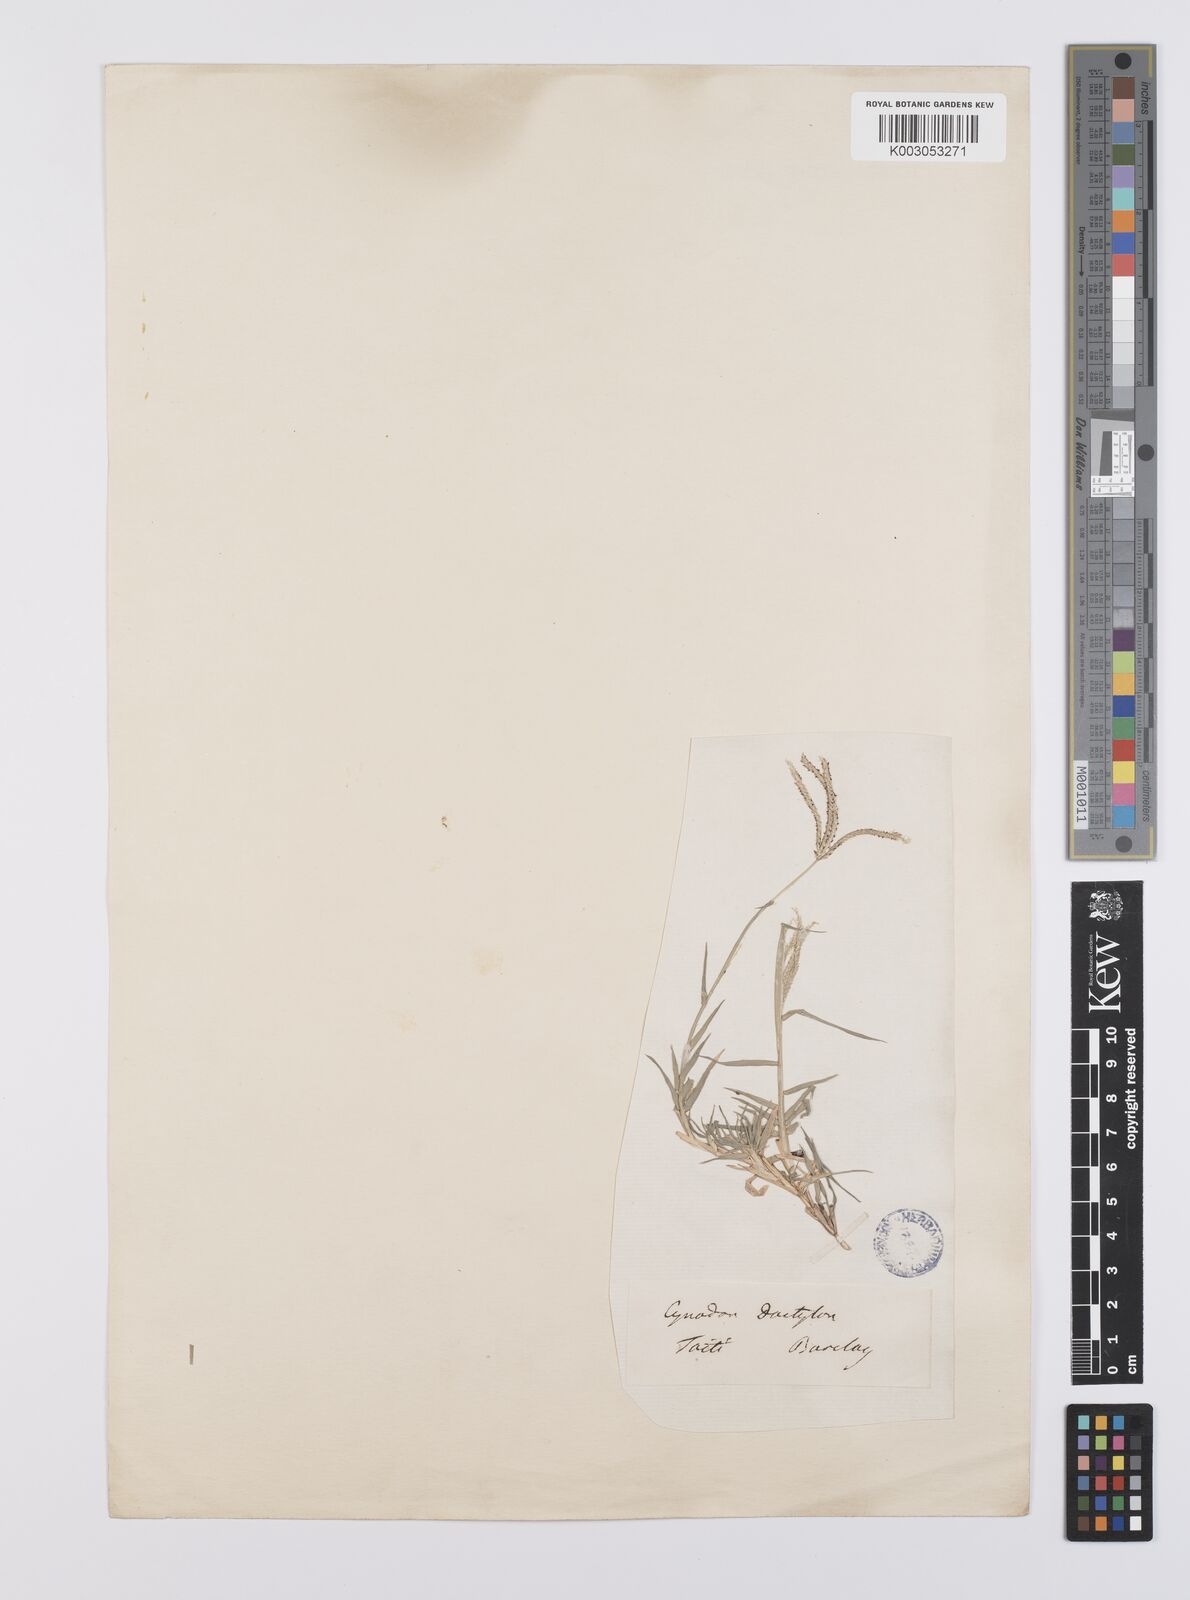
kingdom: Plantae
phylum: Tracheophyta
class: Liliopsida
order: Poales
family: Poaceae
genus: Cynodon
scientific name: Cynodon dactylon
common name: Bermuda grass
